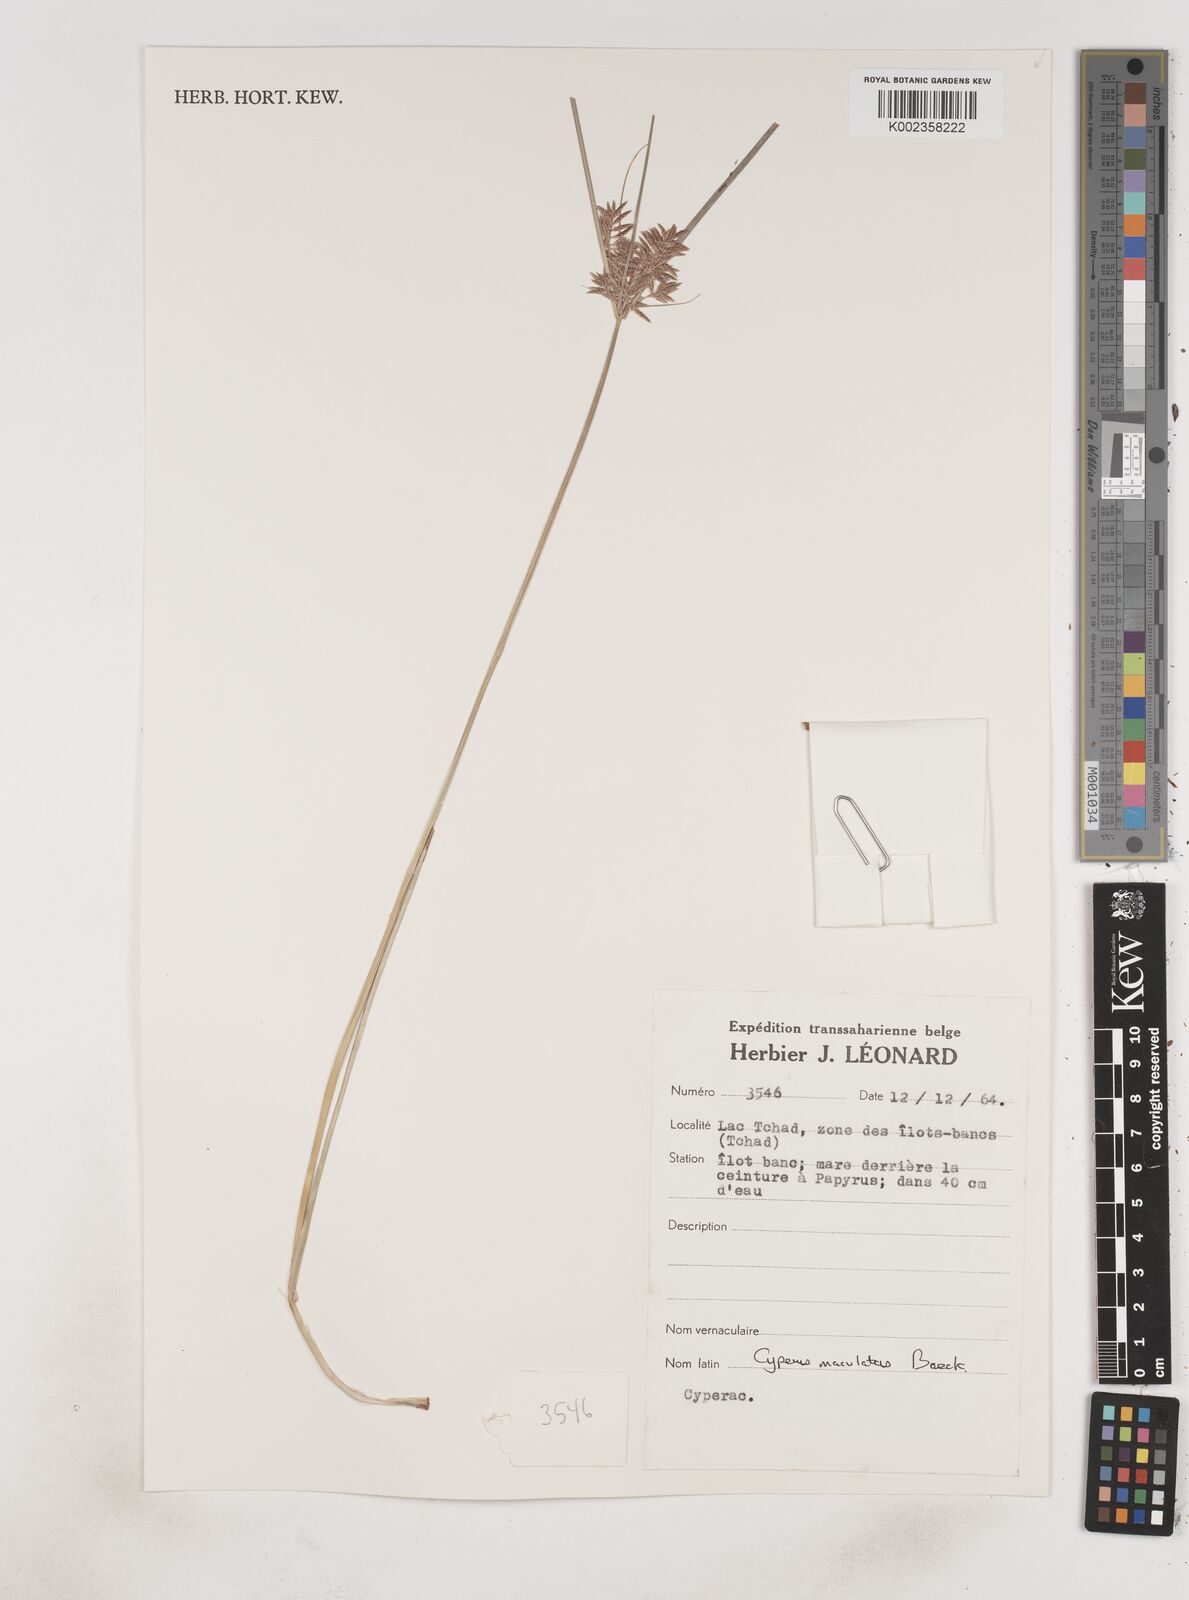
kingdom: Plantae
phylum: Tracheophyta
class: Liliopsida
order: Poales
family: Cyperaceae
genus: Cyperus
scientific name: Cyperus maculatus
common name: Maculated sedge
